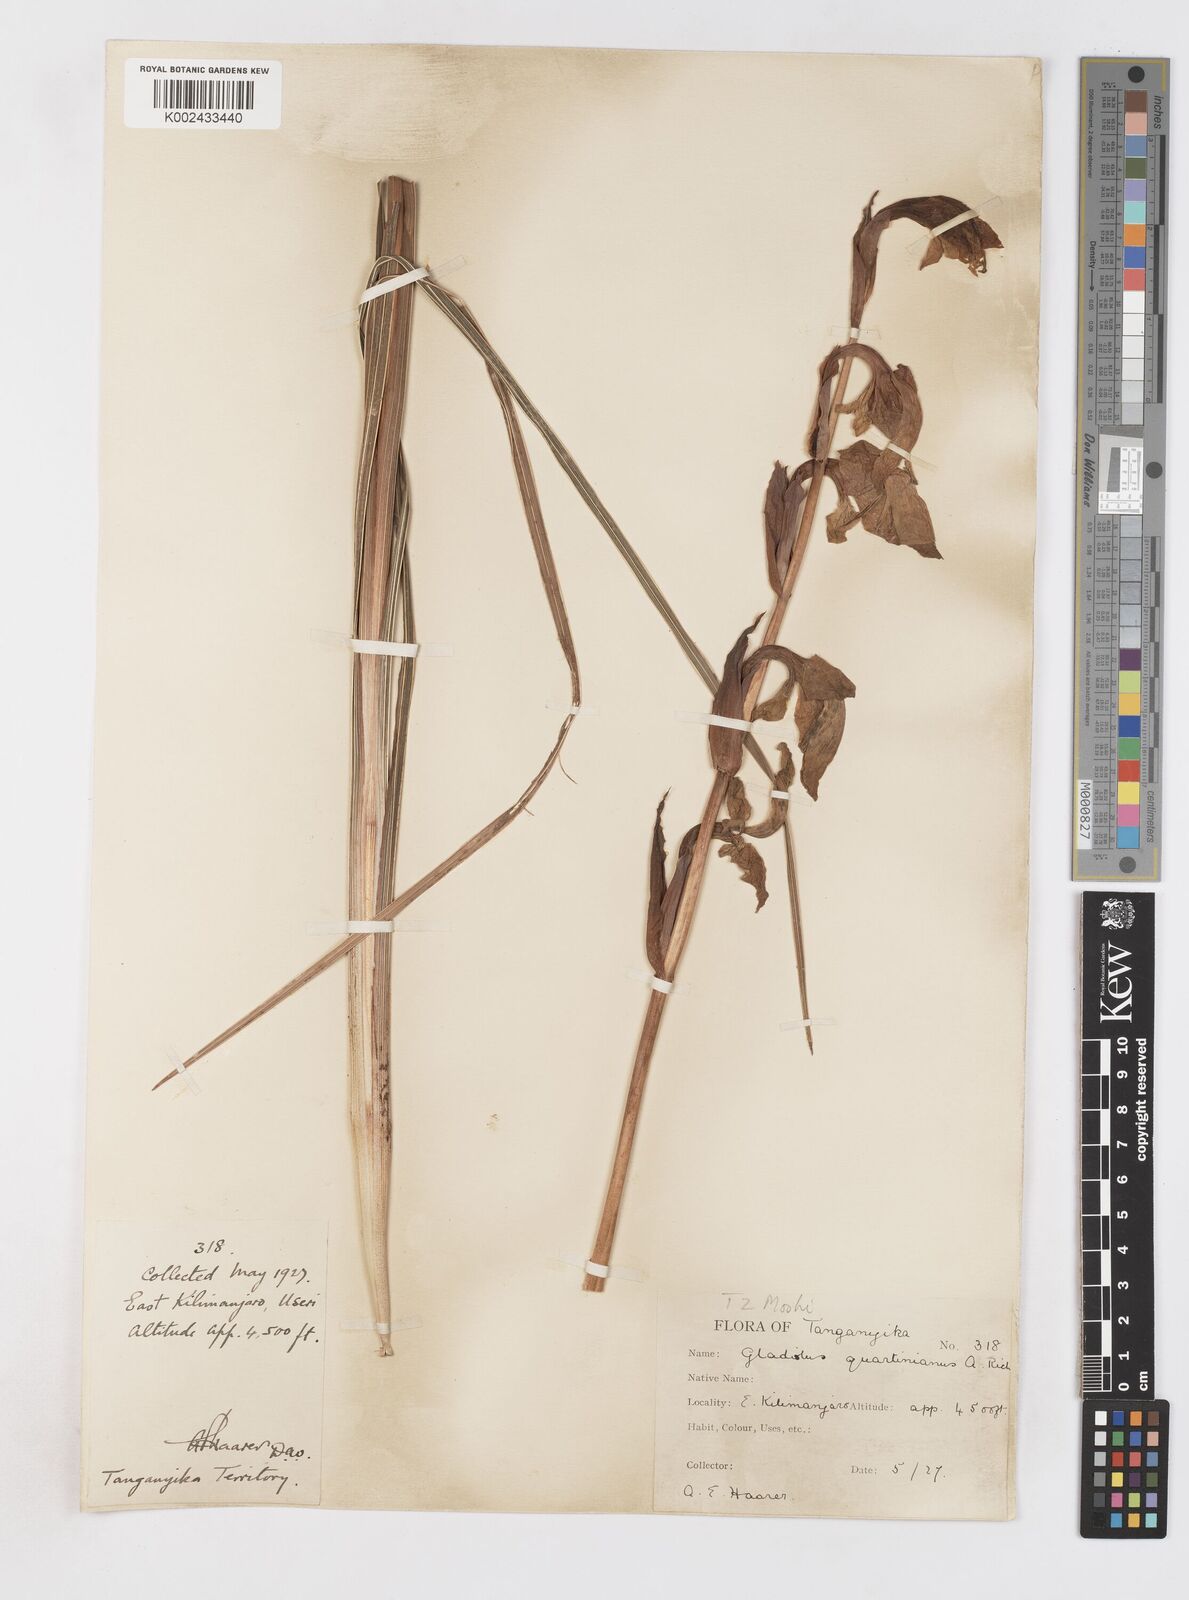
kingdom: Plantae
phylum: Tracheophyta
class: Liliopsida
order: Asparagales
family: Iridaceae
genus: Gladiolus
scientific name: Gladiolus dalenii
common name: Cornflag
